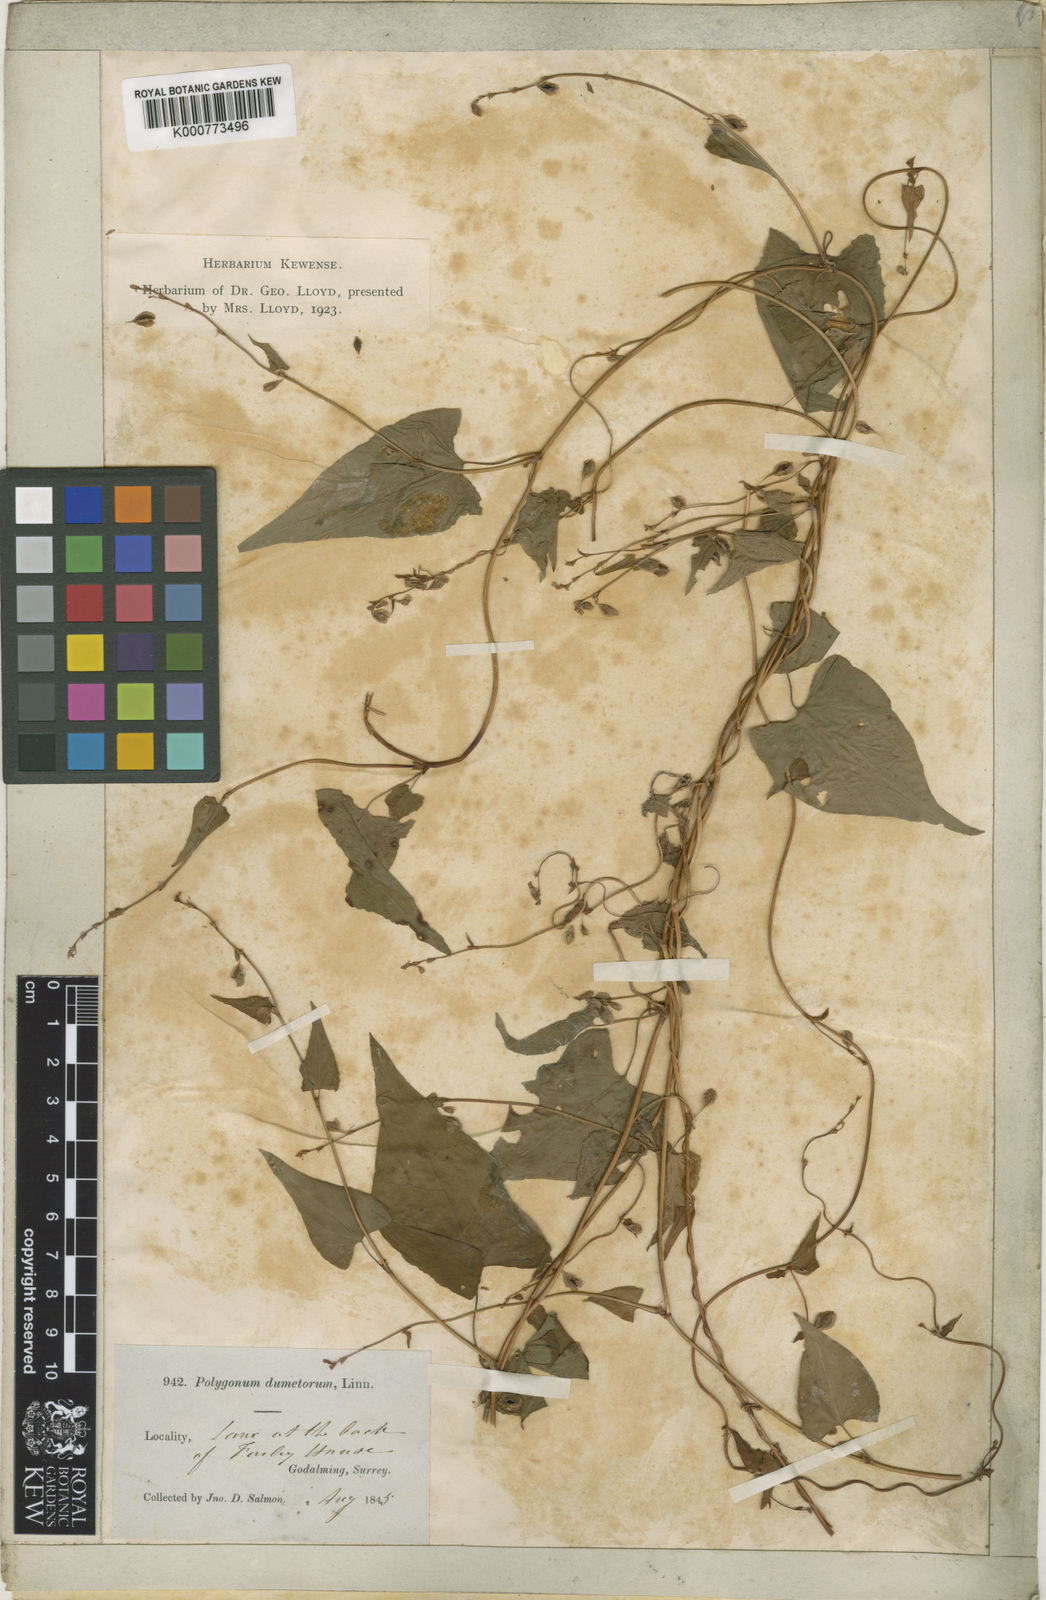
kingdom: Plantae
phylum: Tracheophyta
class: Magnoliopsida
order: Caryophyllales
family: Polygonaceae
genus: Fallopia
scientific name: Fallopia dumetorum
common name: Copse-bindweed
